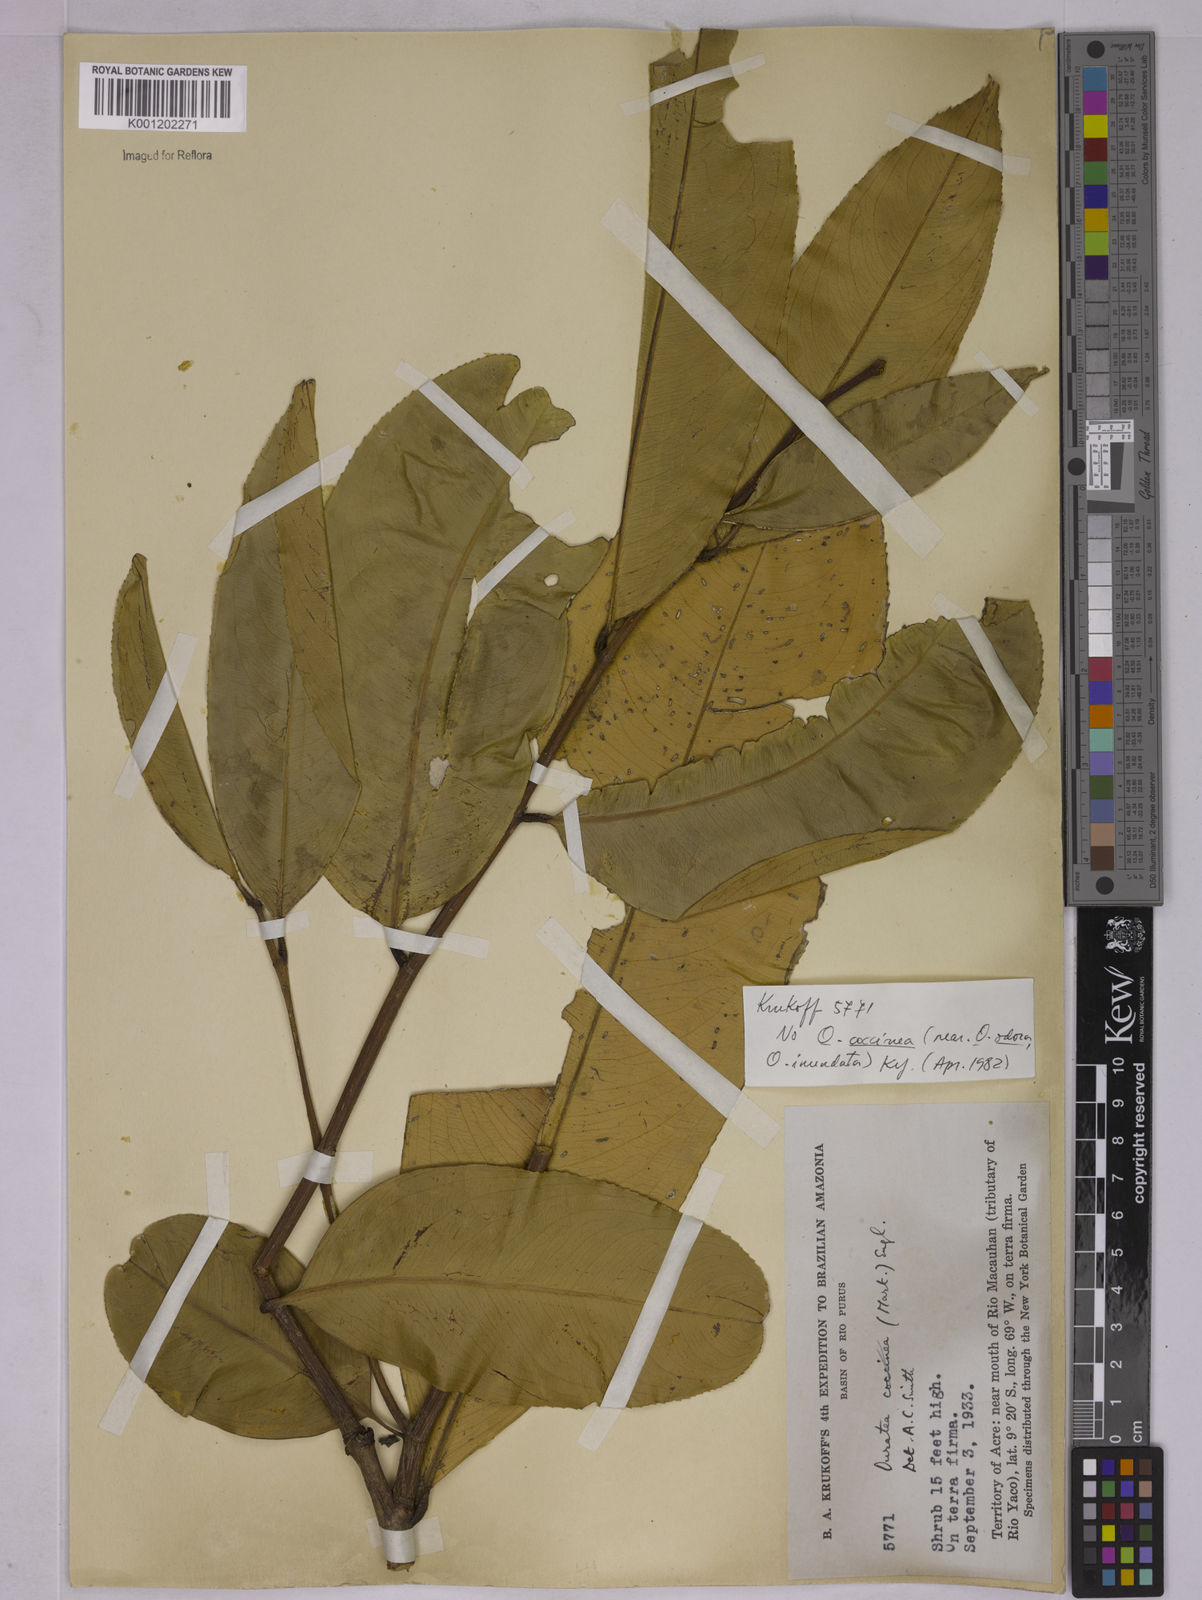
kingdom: Plantae
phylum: Tracheophyta
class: Magnoliopsida
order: Malpighiales
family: Ochnaceae
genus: Ouratea
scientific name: Ouratea
